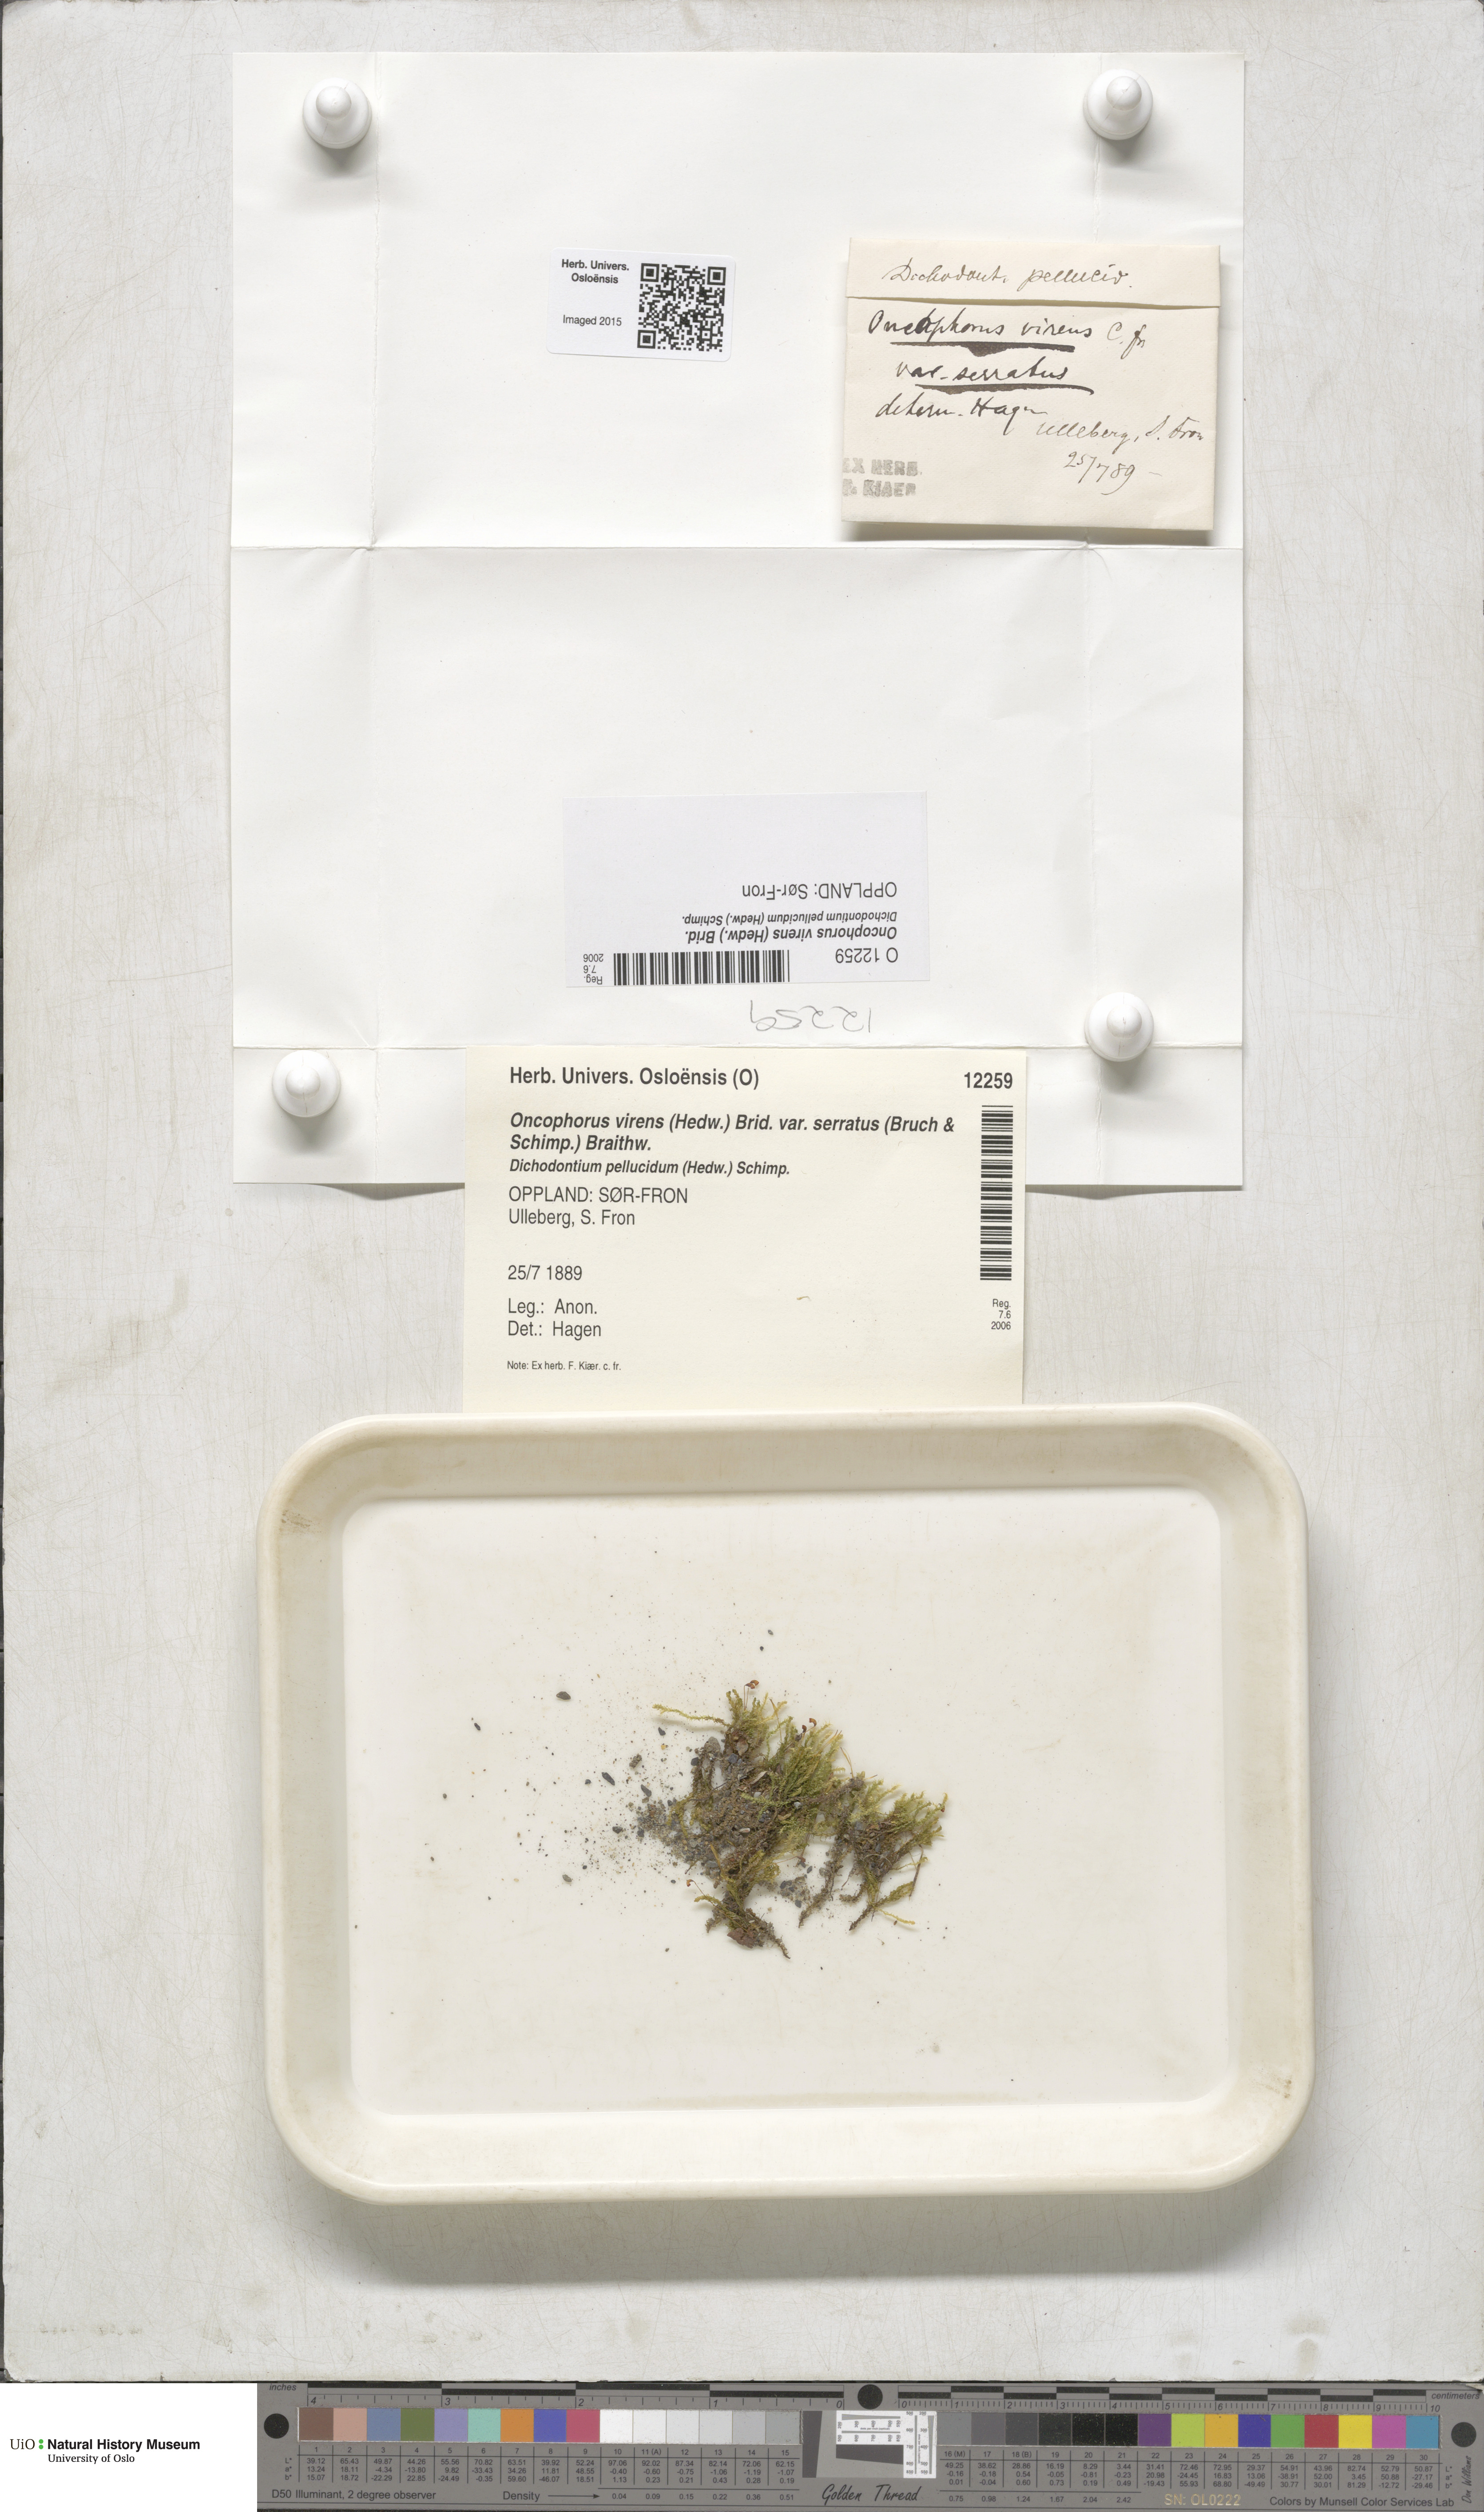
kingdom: Plantae
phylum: Bryophyta
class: Bryopsida
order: Dicranales
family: Rhabdoweisiaceae
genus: Oncophorus
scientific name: Oncophorus virens
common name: Green spur moss
